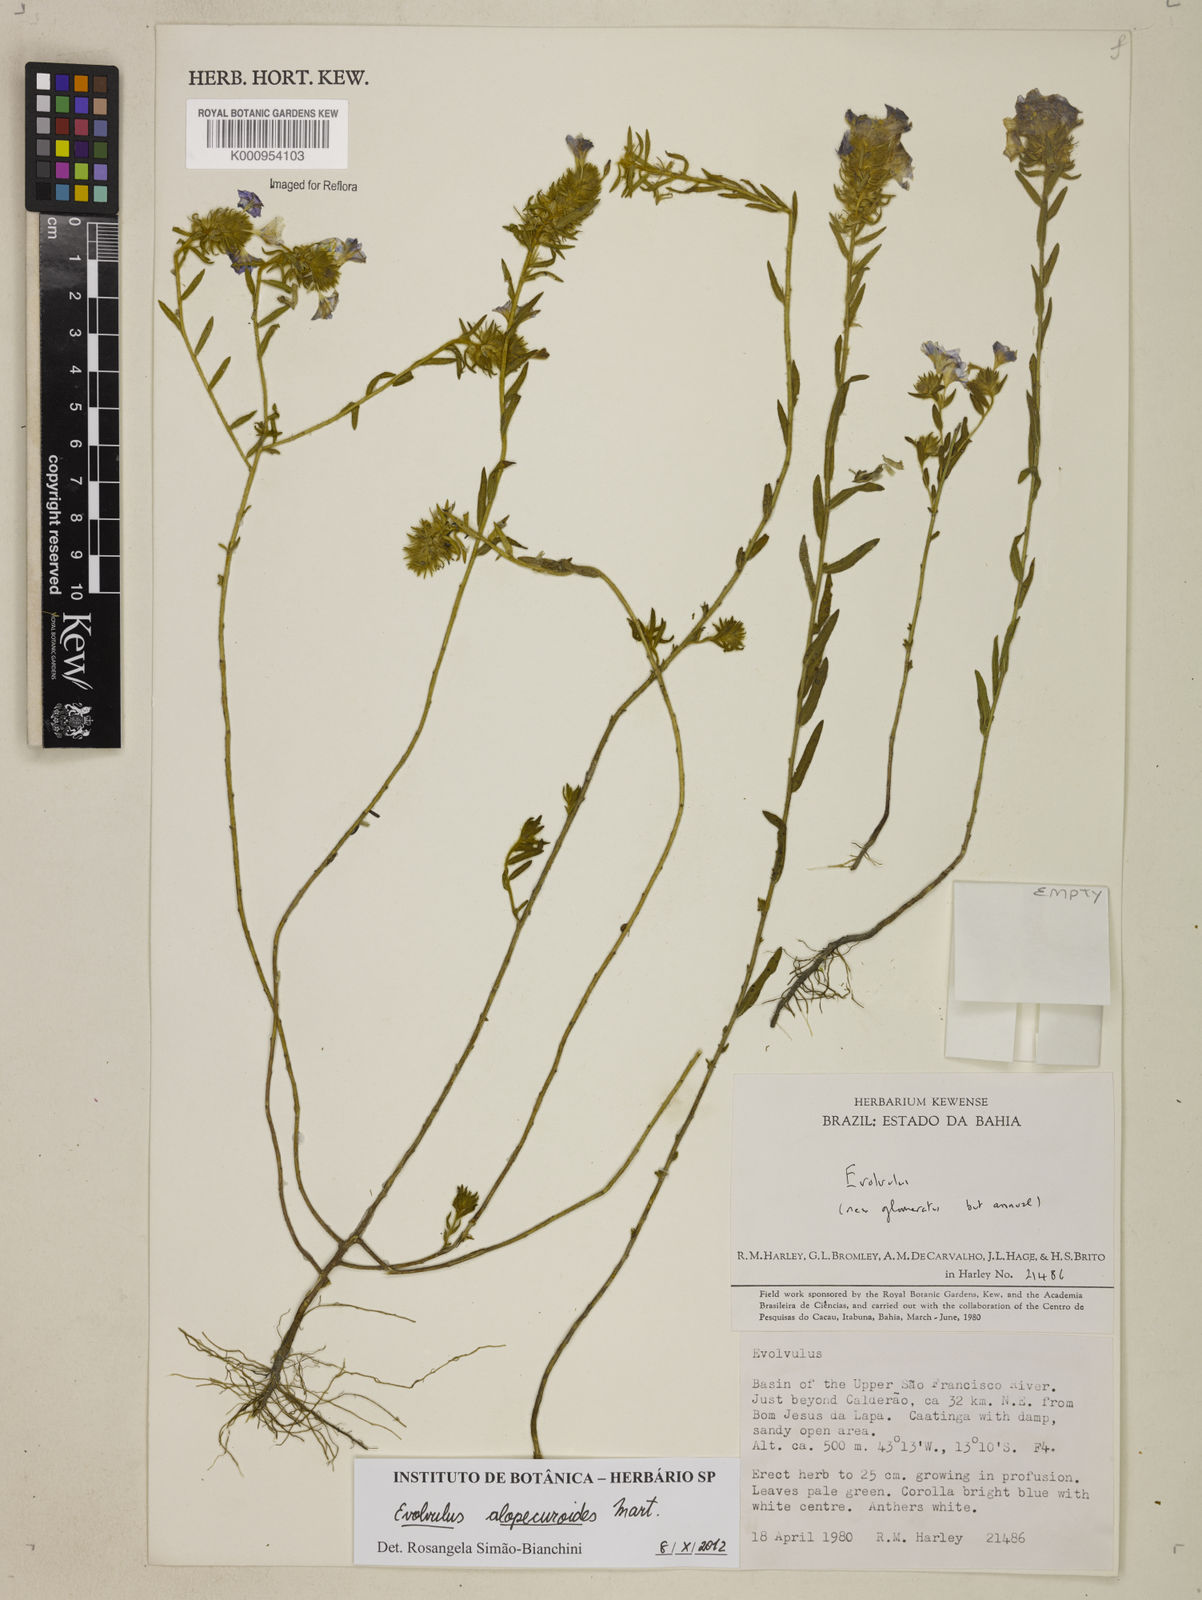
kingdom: Plantae
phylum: Tracheophyta
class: Magnoliopsida
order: Solanales
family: Convolvulaceae
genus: Evolvulus
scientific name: Evolvulus alopecuroides
